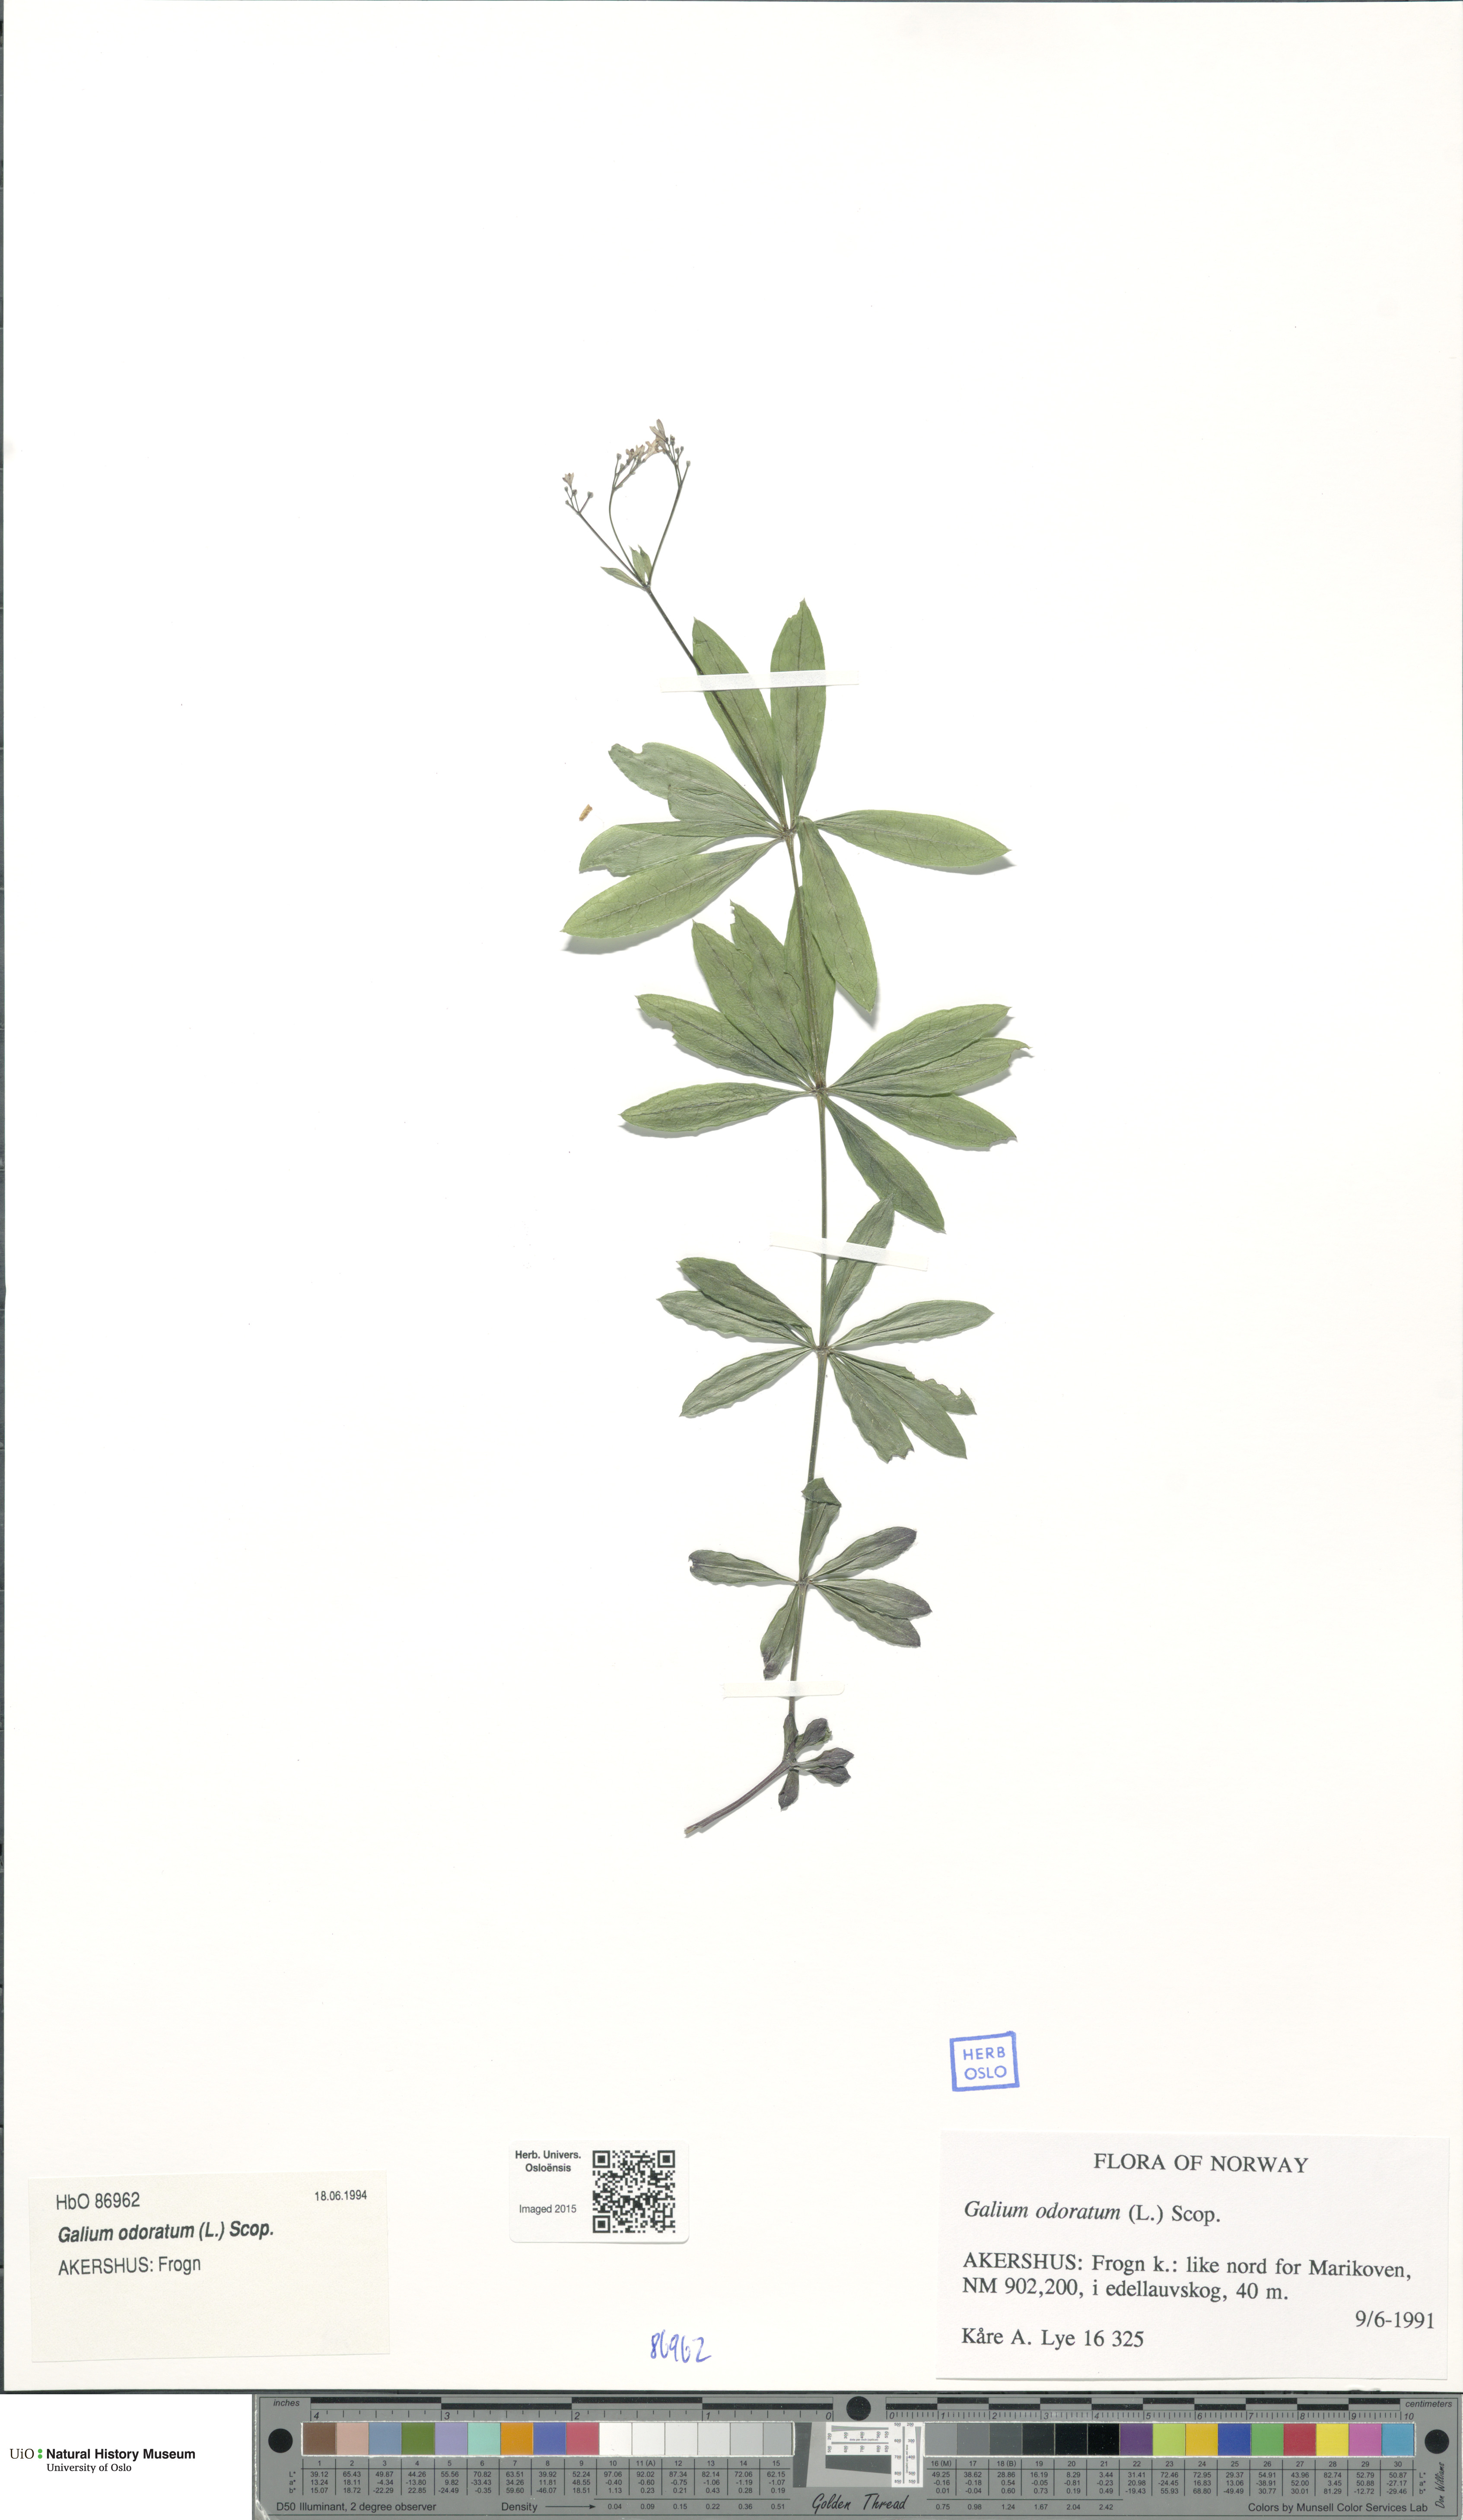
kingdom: Plantae
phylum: Tracheophyta
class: Magnoliopsida
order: Gentianales
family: Rubiaceae
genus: Galium
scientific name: Galium odoratum
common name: Sweet woodruff
